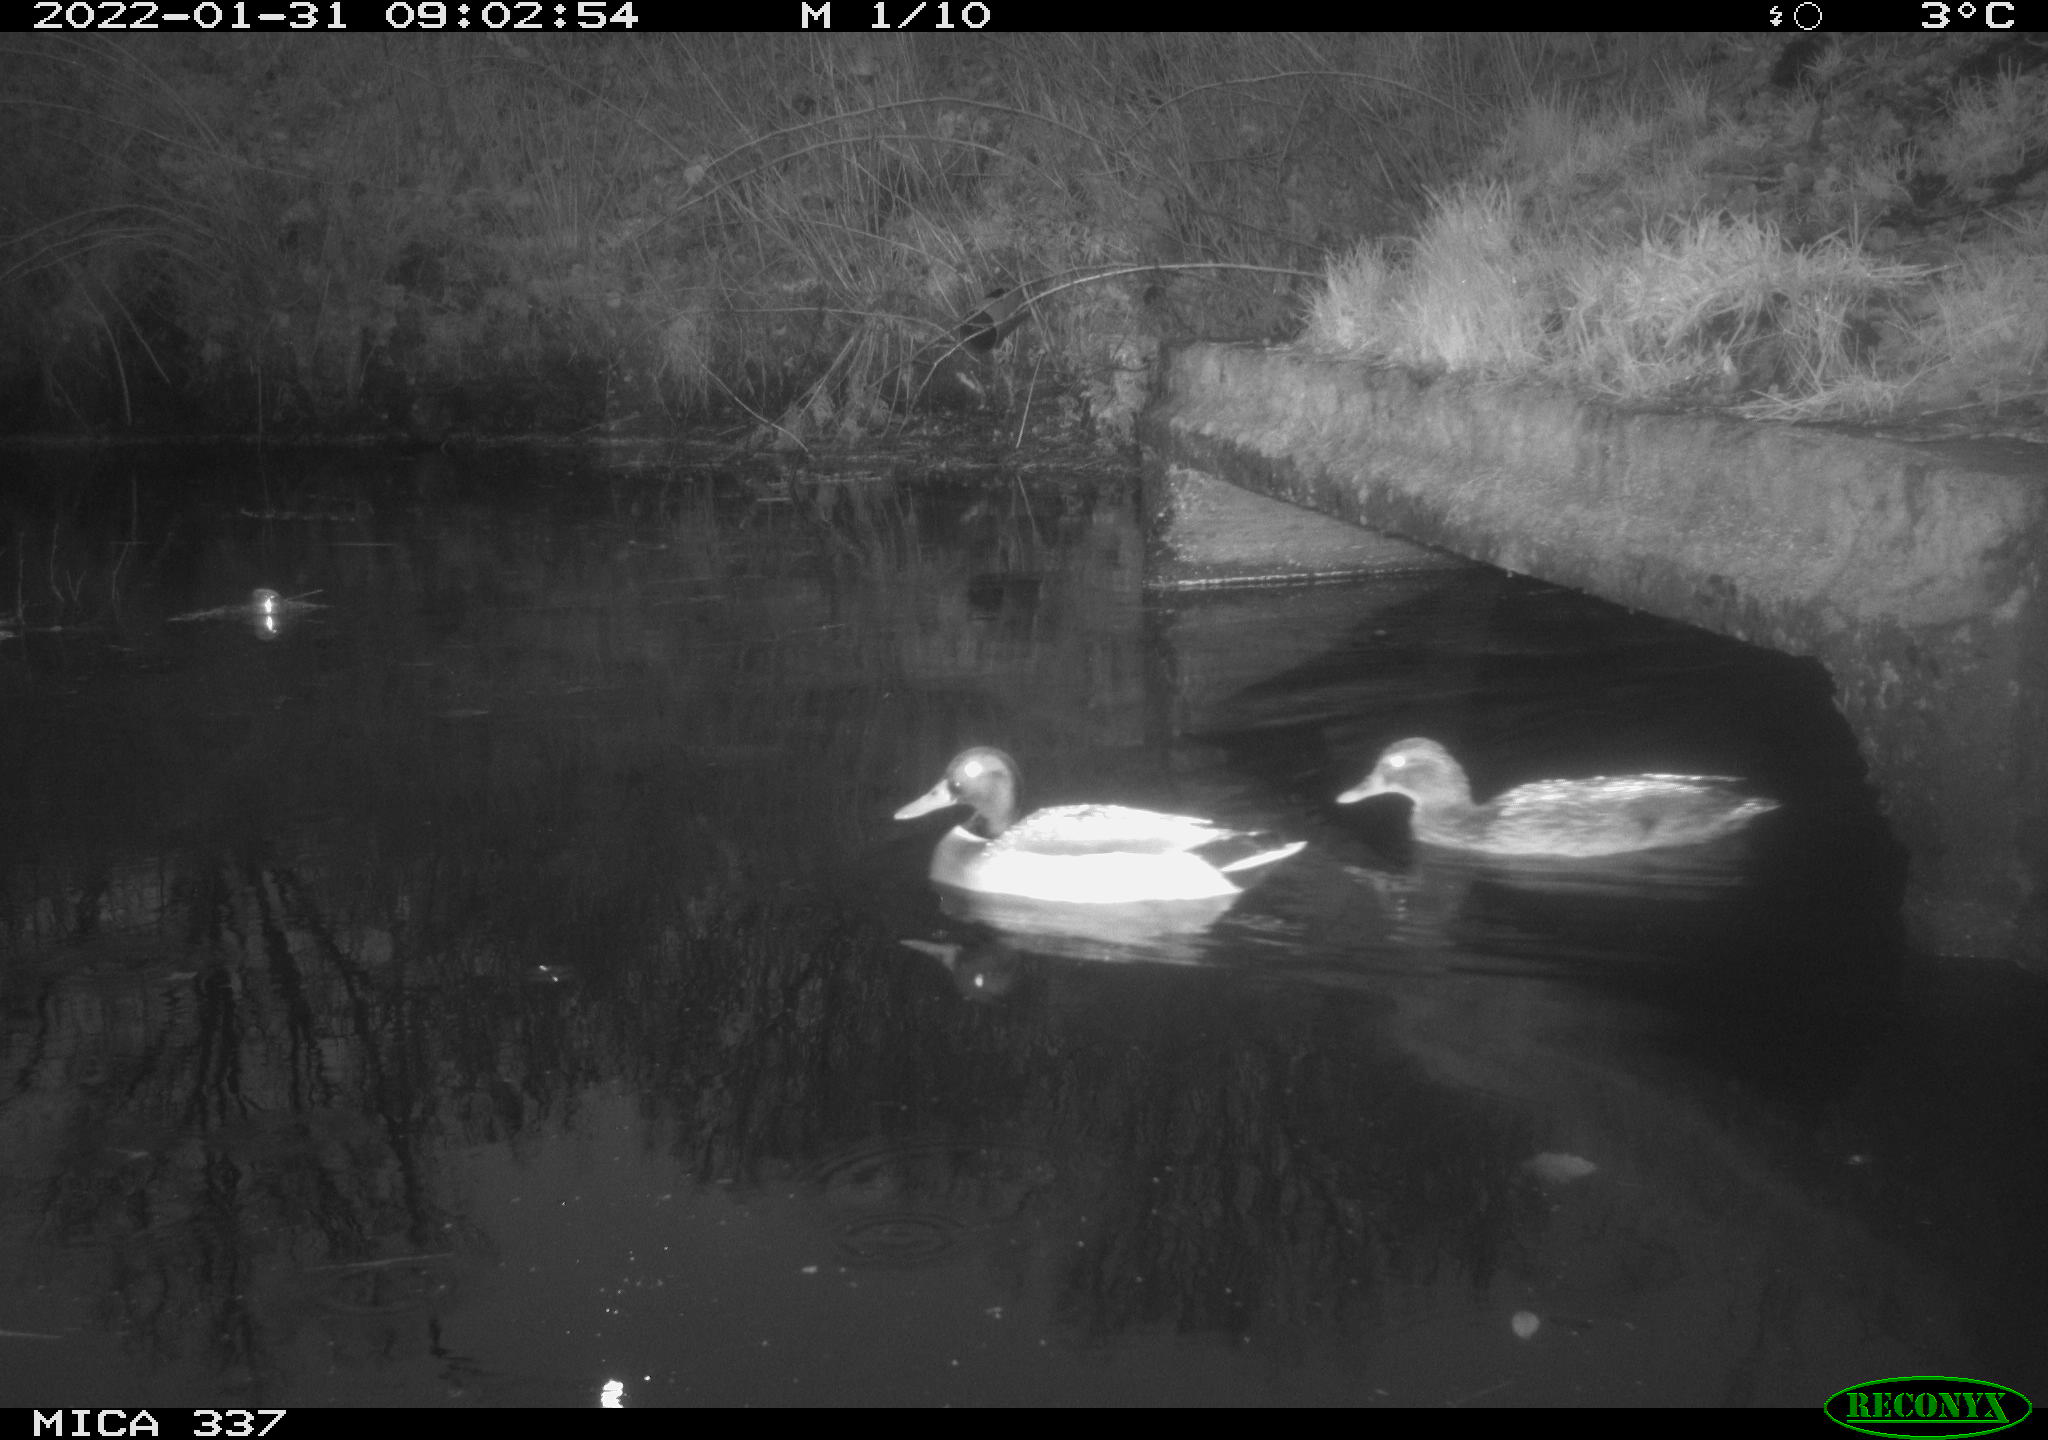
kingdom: Animalia
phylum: Chordata
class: Aves
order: Anseriformes
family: Anatidae
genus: Anas
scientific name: Anas platyrhynchos
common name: Mallard
